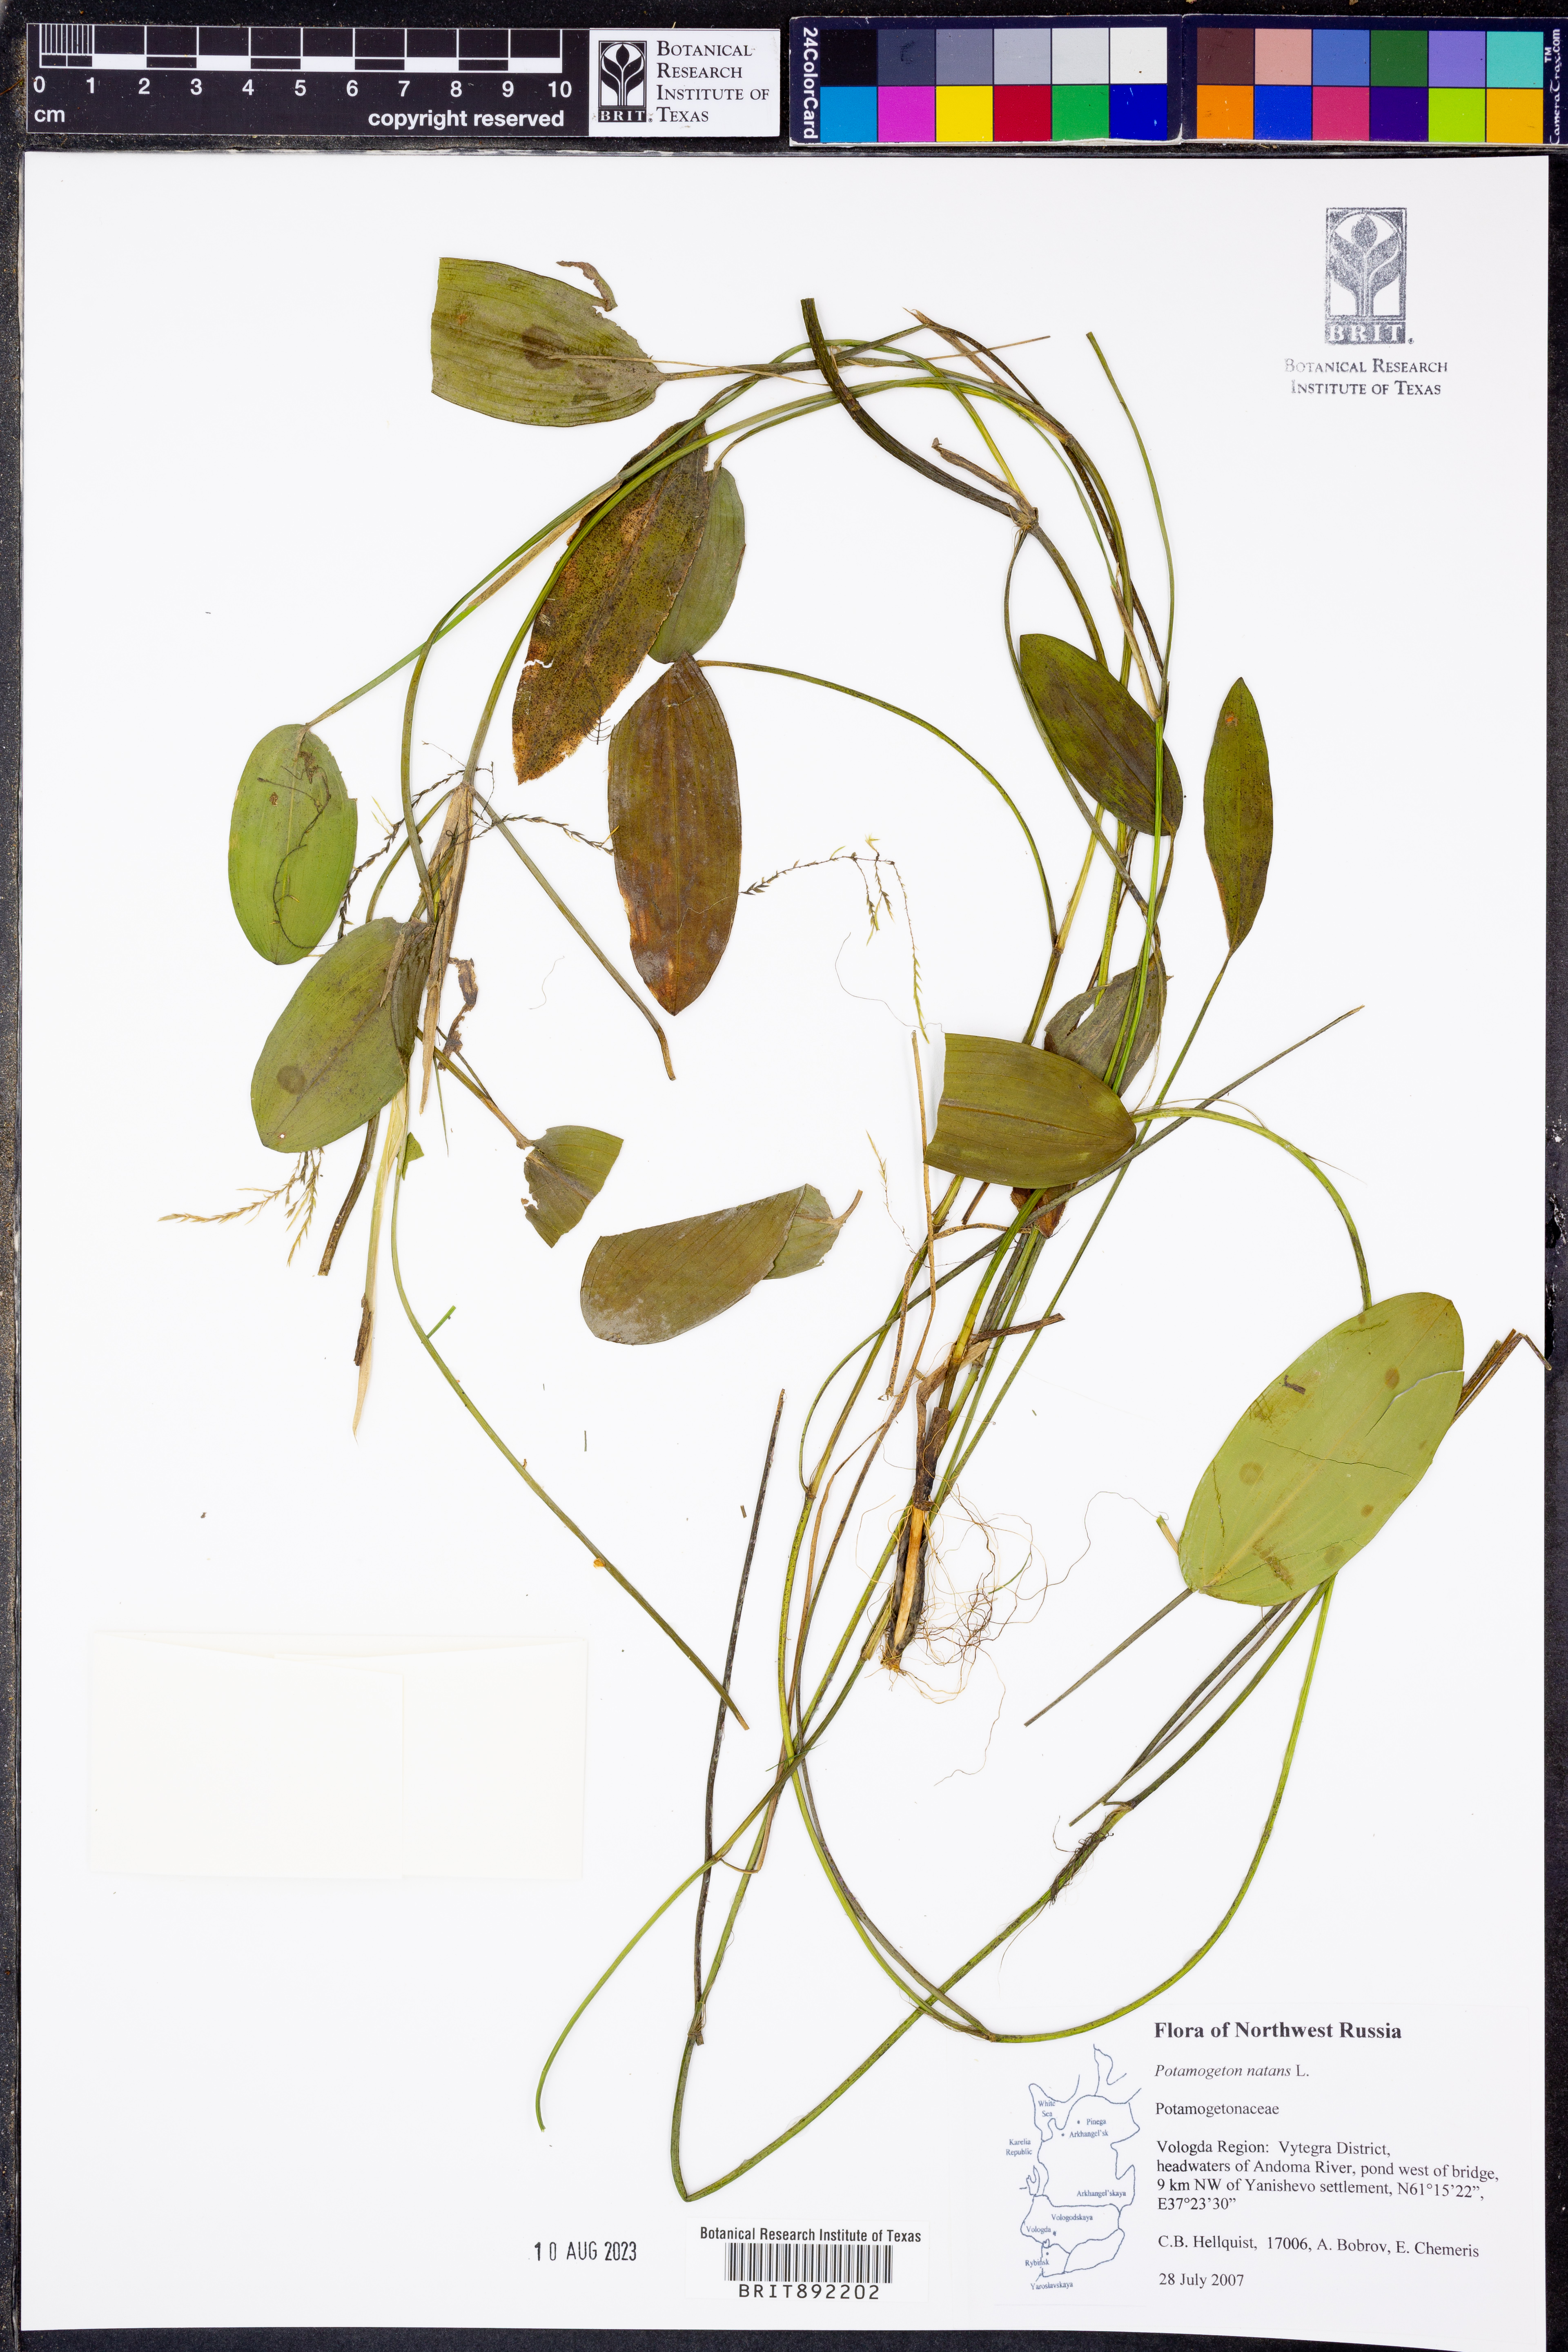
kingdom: Plantae
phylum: Tracheophyta
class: Liliopsida
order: Alismatales
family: Potamogetonaceae
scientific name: Potamogetonaceae
